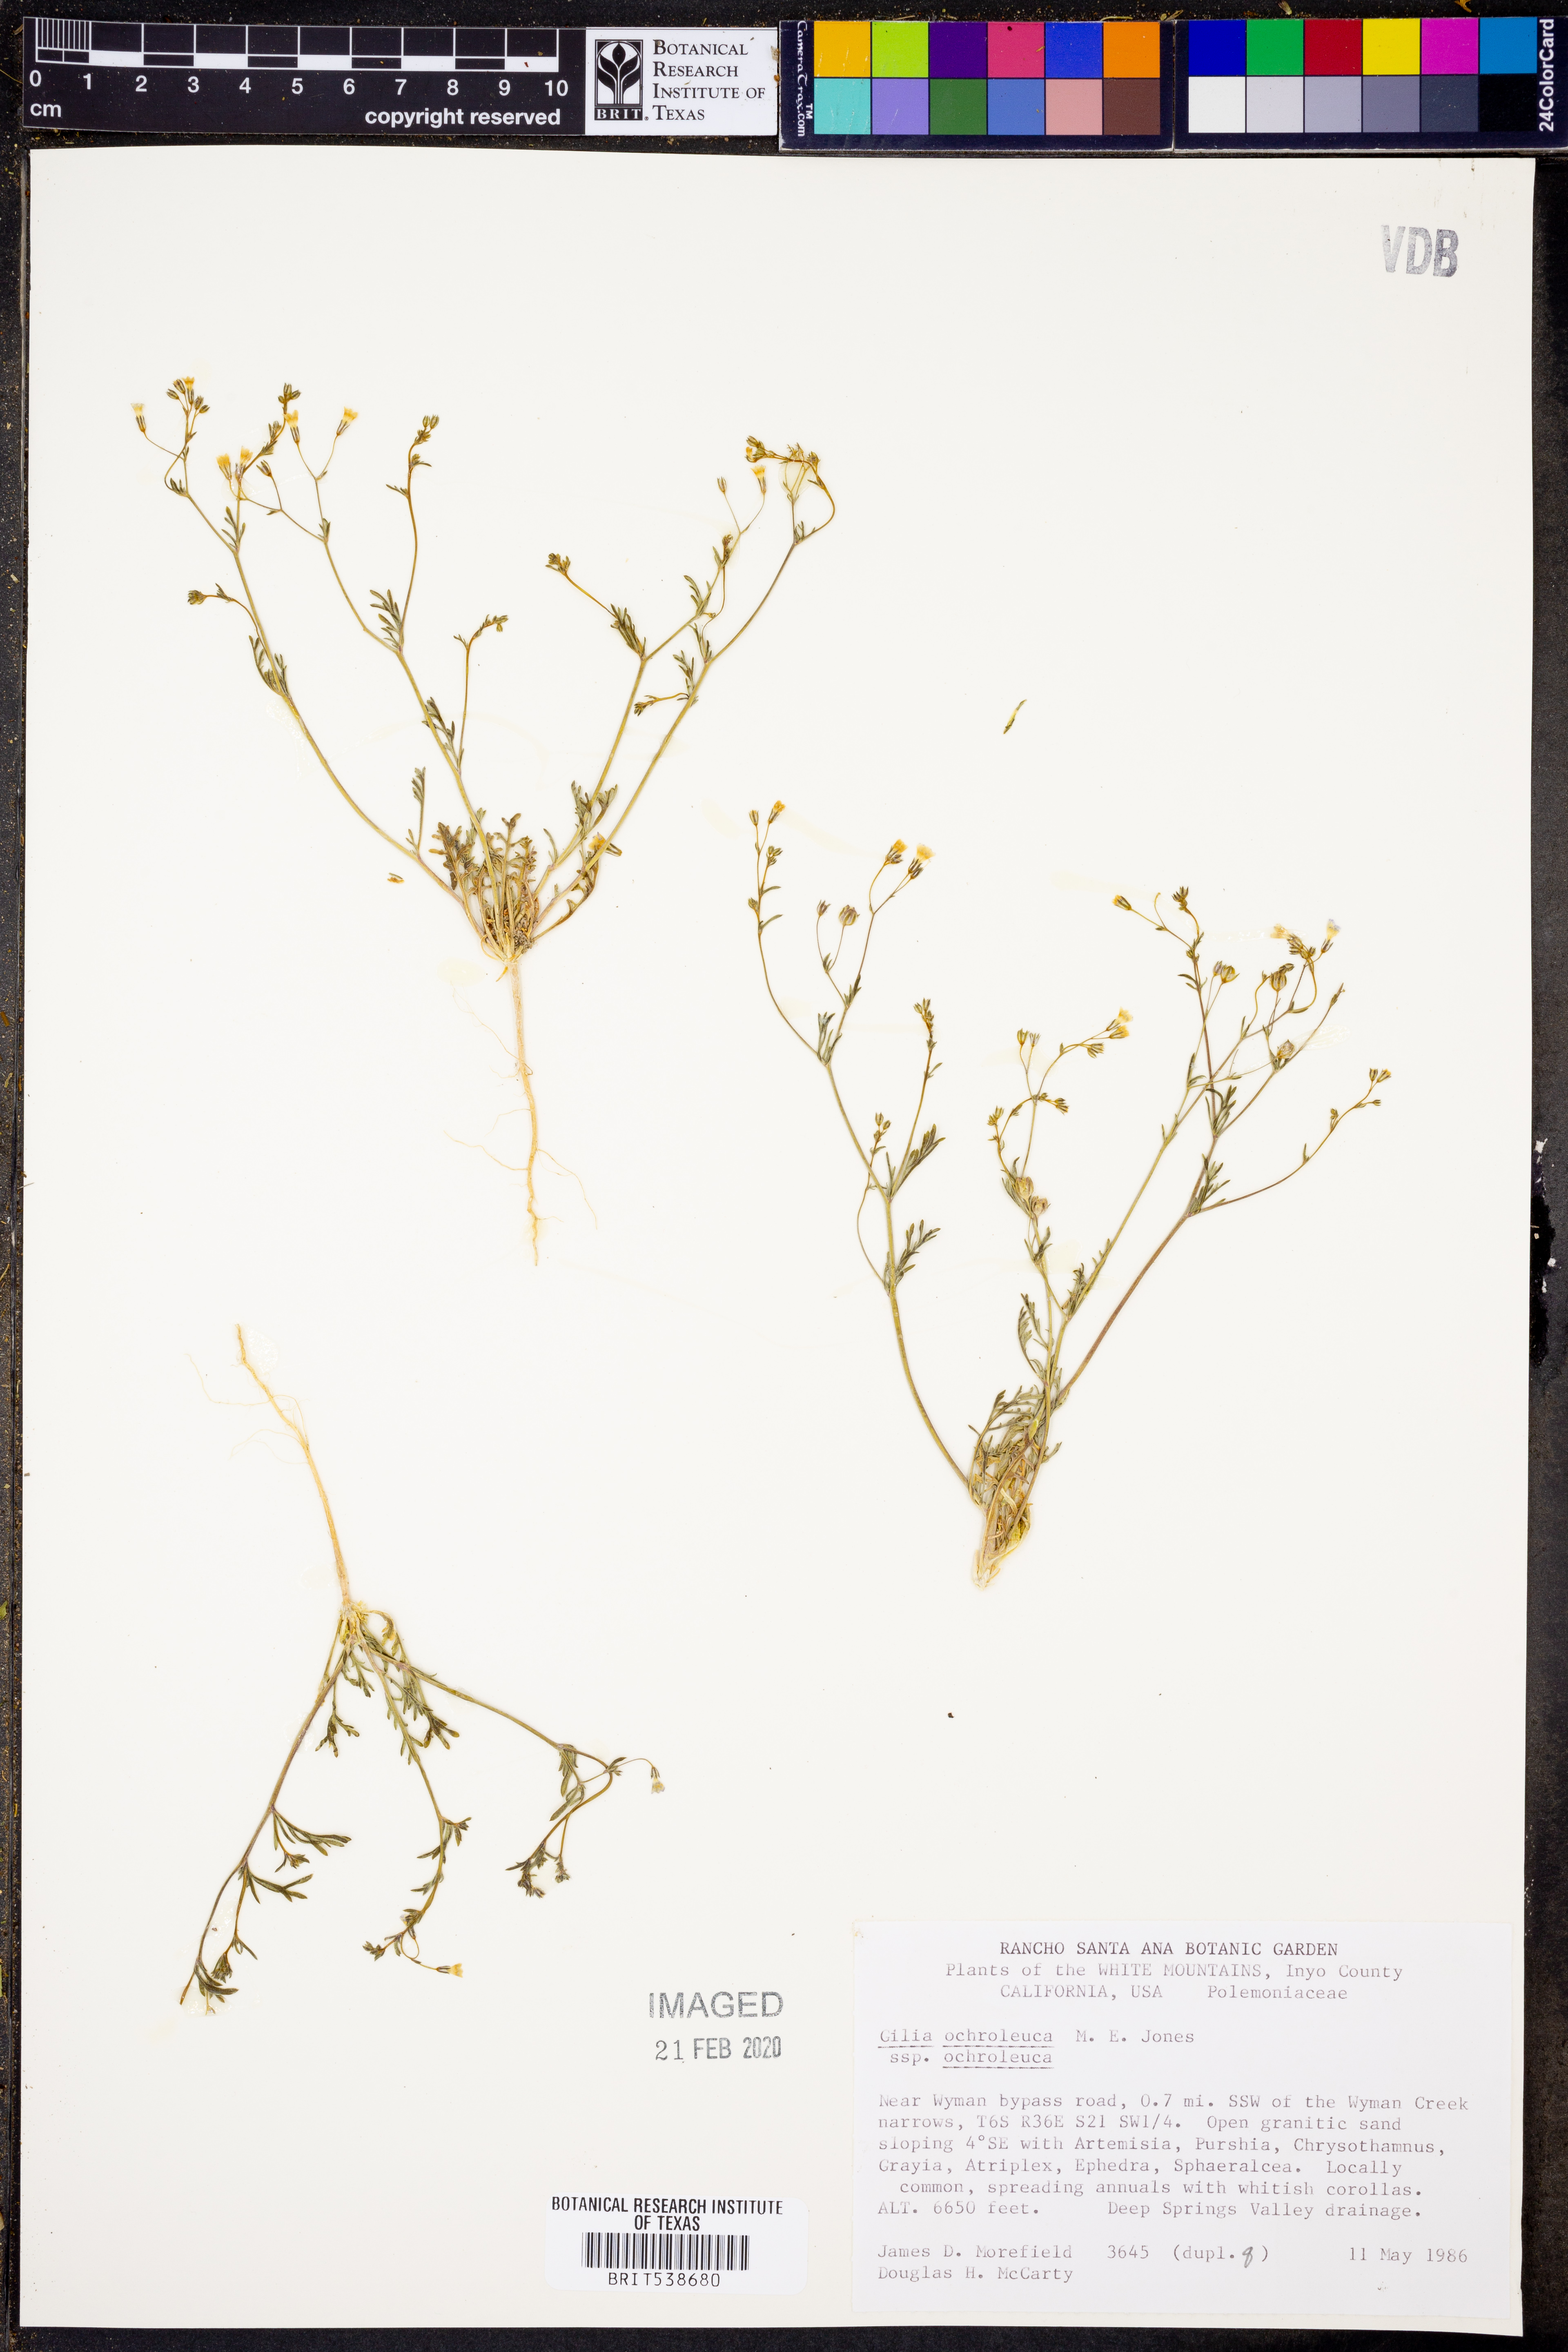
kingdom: Plantae
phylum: Tracheophyta
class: Magnoliopsida
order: Ericales
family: Polemoniaceae
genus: Gilia
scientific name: Gilia ochroleuca
